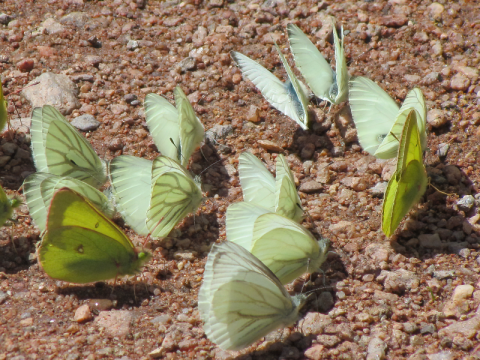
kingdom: Animalia
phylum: Arthropoda
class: Insecta
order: Lepidoptera
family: Pieridae
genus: Pieris
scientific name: Pieris marginalis
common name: Margined White
